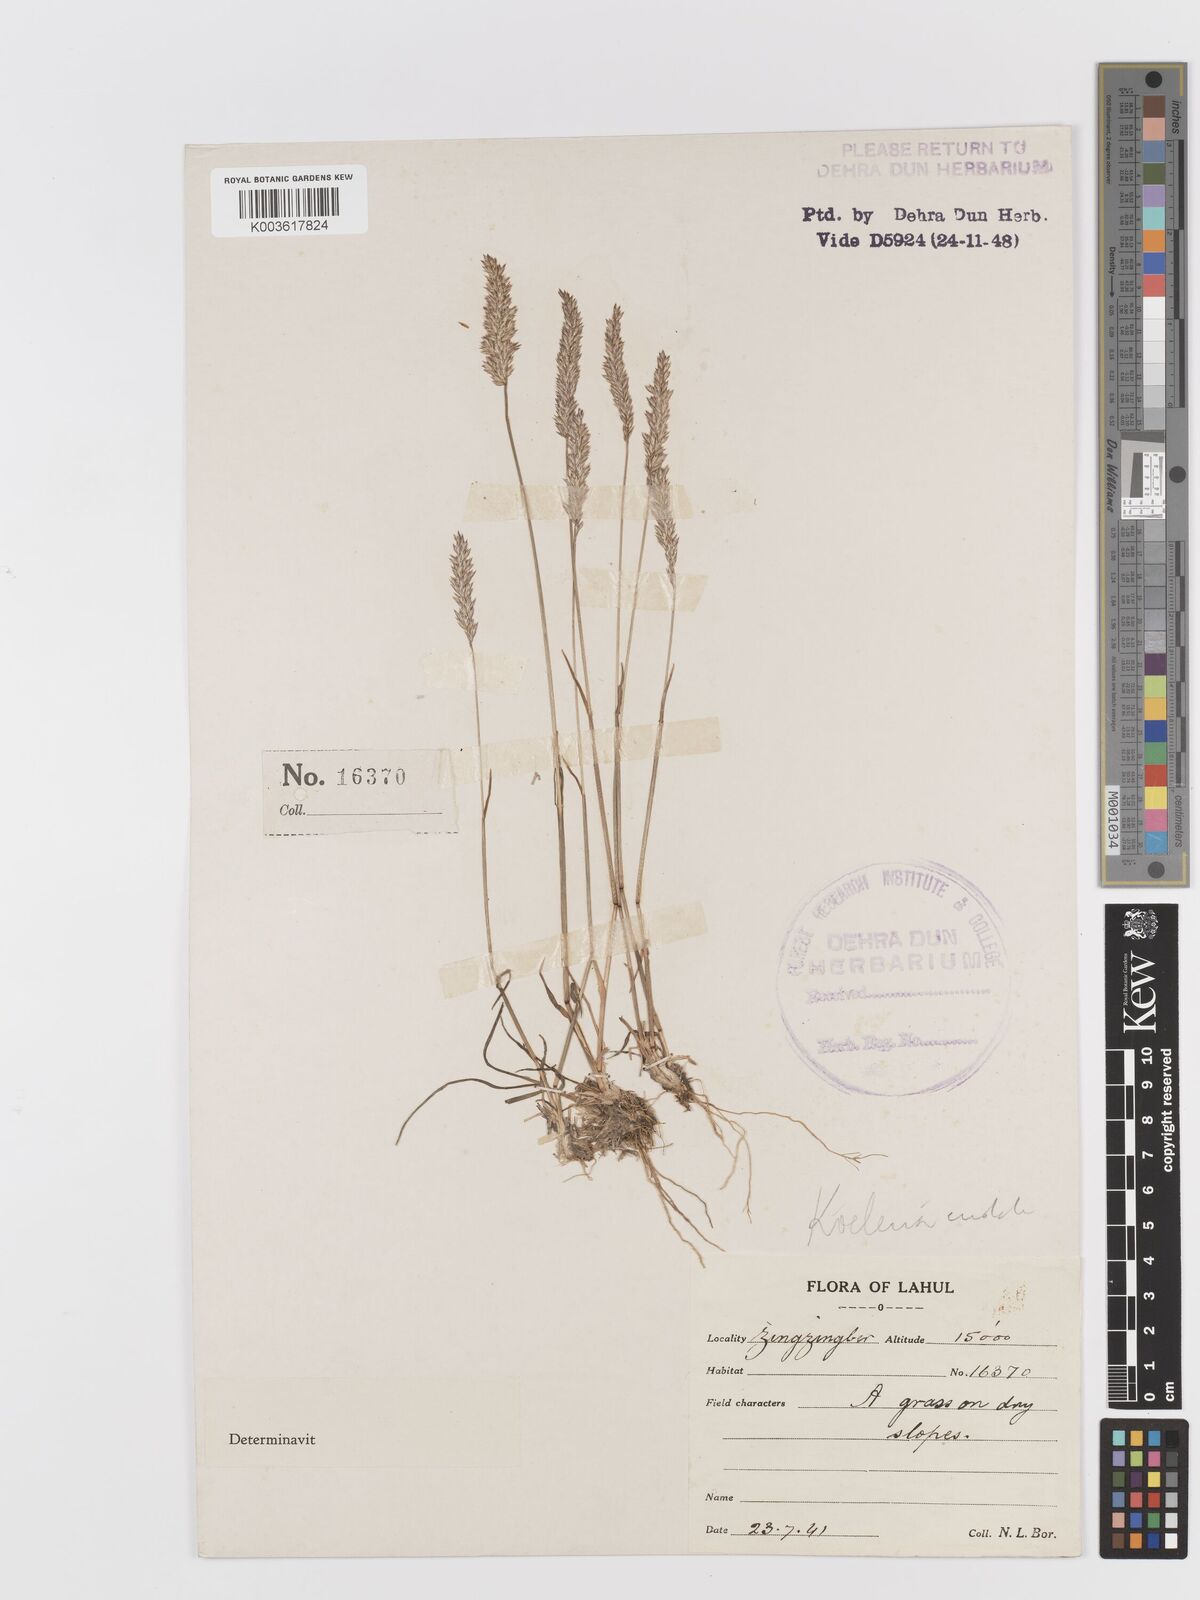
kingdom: Plantae
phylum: Tracheophyta
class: Liliopsida
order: Poales
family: Poaceae
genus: Koeleria
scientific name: Koeleria macrantha
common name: Crested hair-grass
